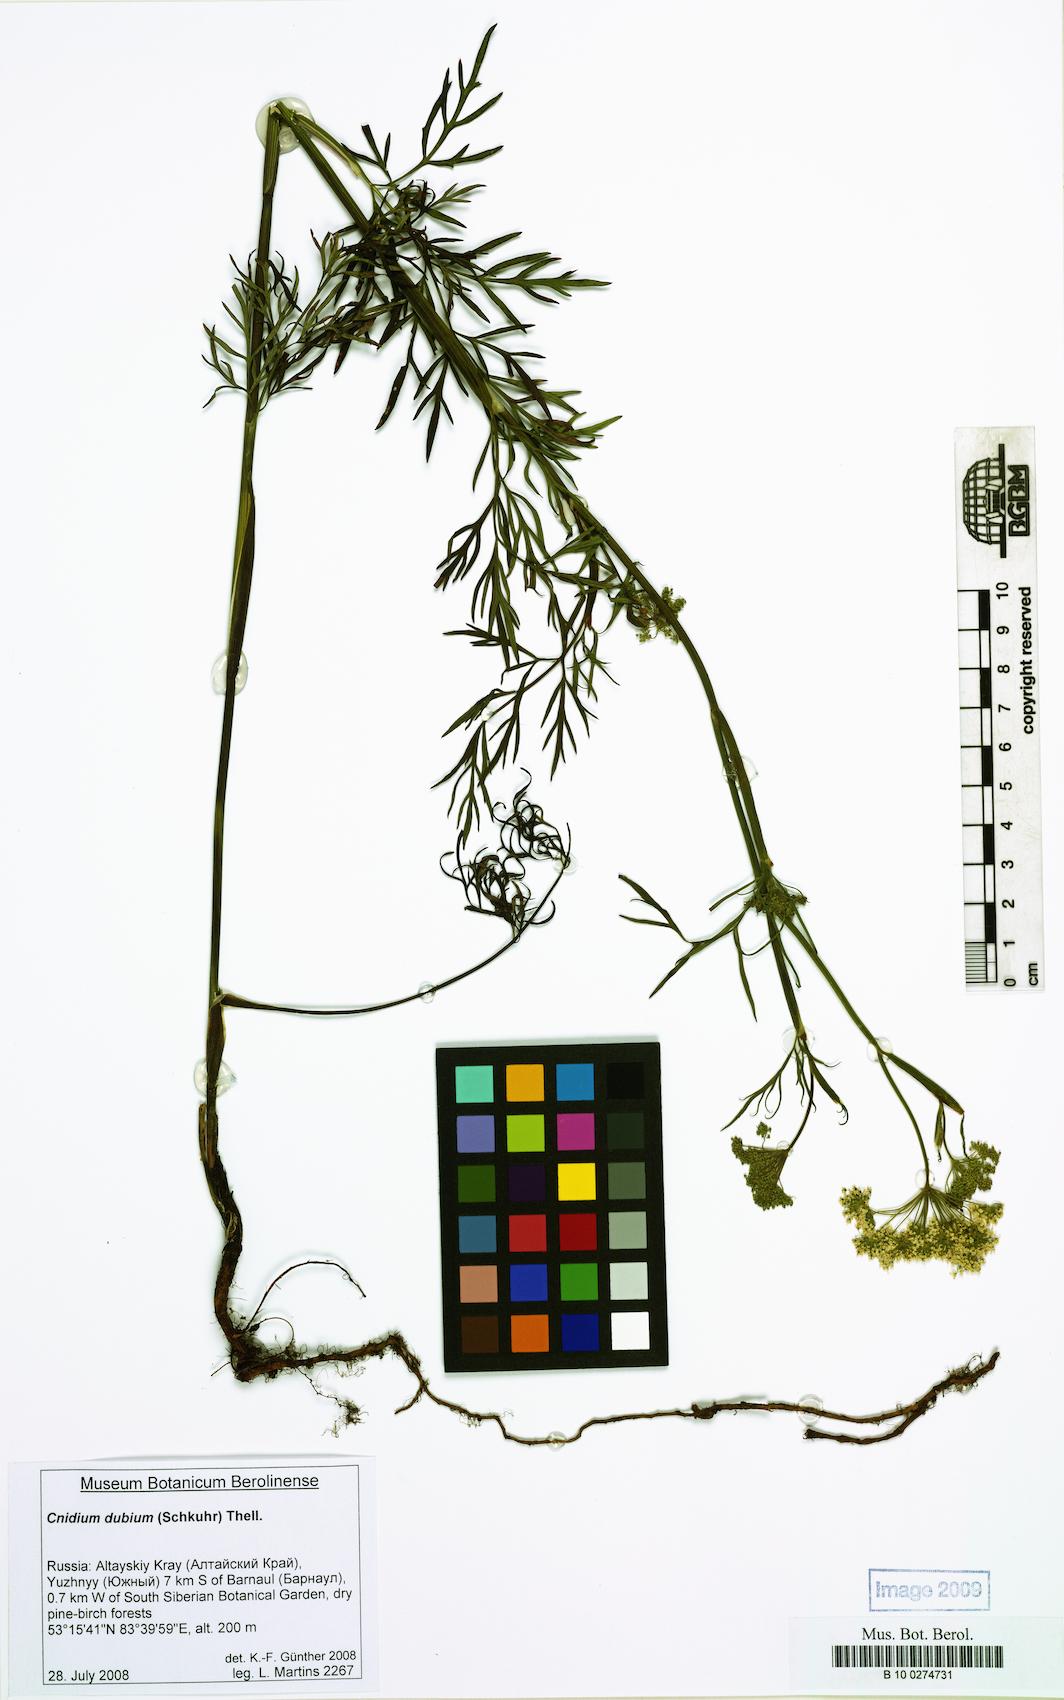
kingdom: Plantae
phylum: Tracheophyta
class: Magnoliopsida
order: Apiales
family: Apiaceae
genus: Kadenia
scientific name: Kadenia dubia
